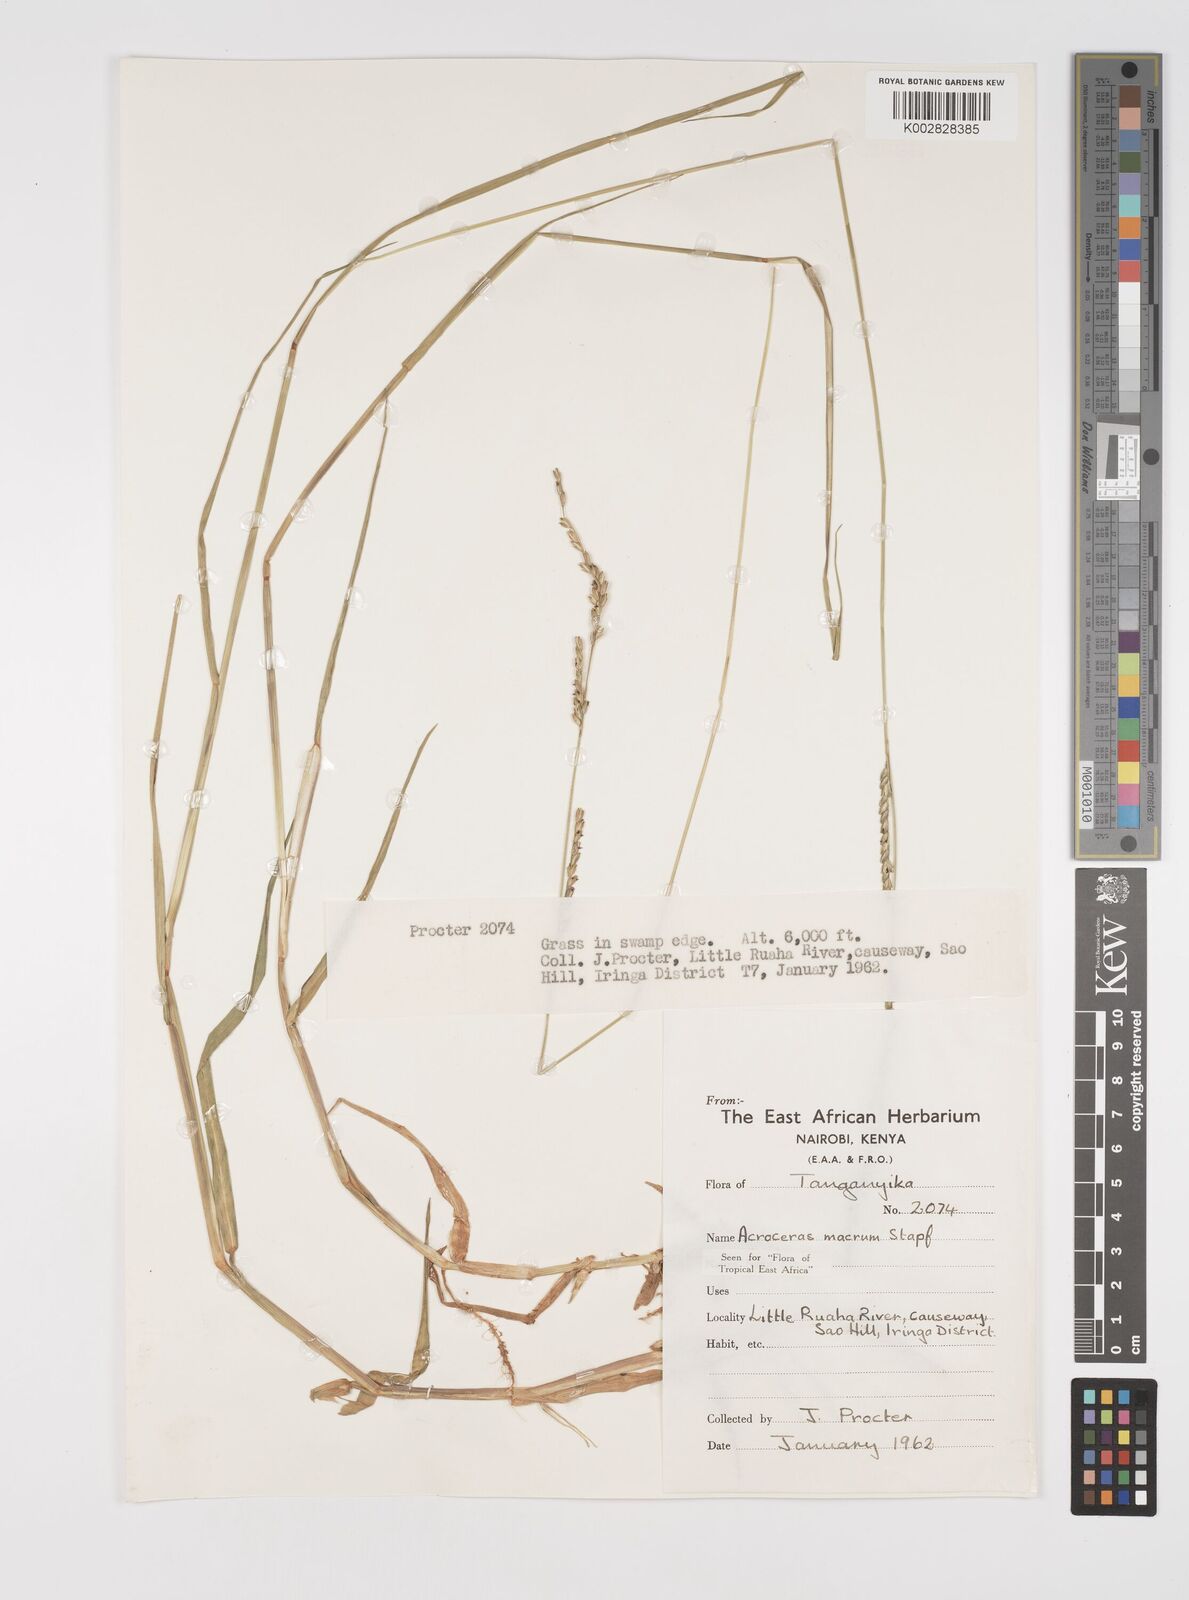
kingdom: Plantae
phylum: Tracheophyta
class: Liliopsida
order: Poales
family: Poaceae
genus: Acroceras
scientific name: Acroceras macrum
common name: Nyl grass
